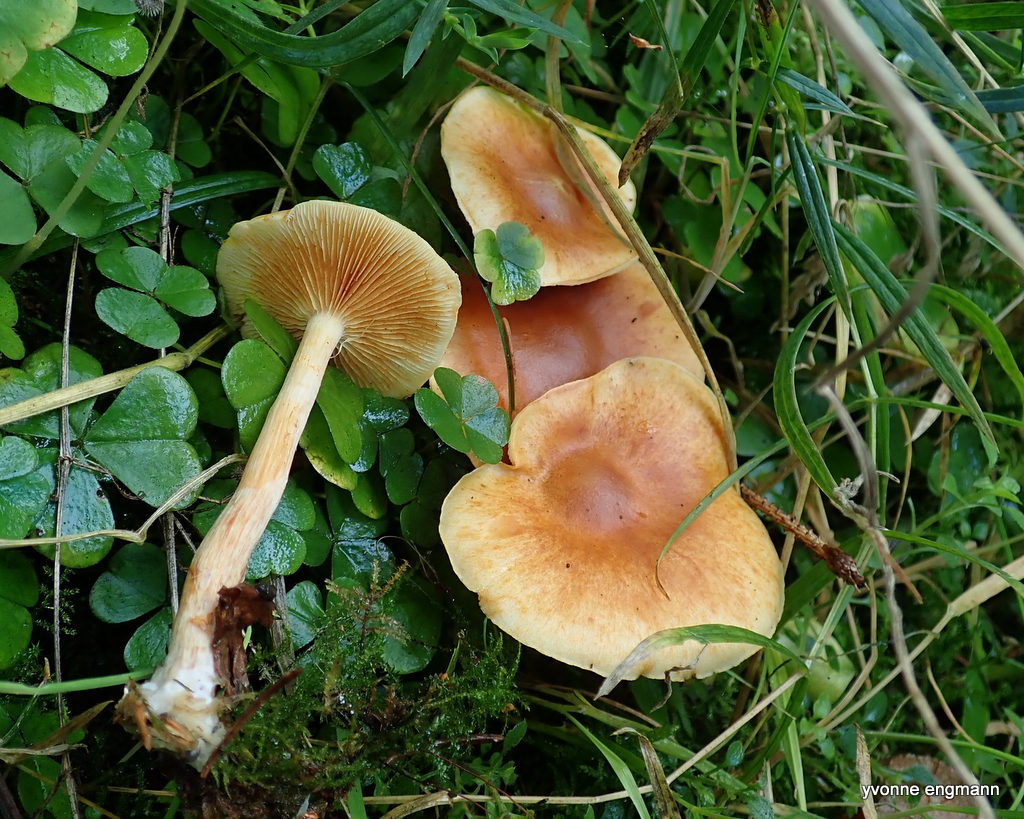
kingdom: Fungi
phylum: Basidiomycota
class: Agaricomycetes
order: Agaricales
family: Hymenogastraceae
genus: Gymnopilus
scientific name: Gymnopilus penetrans
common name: plettet flammehat
